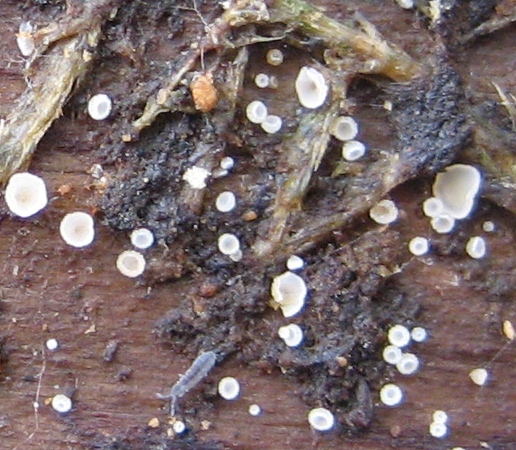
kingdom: Fungi
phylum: Ascomycota
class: Leotiomycetes
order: Helotiales
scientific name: Helotiales
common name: stilkskiveordenen
